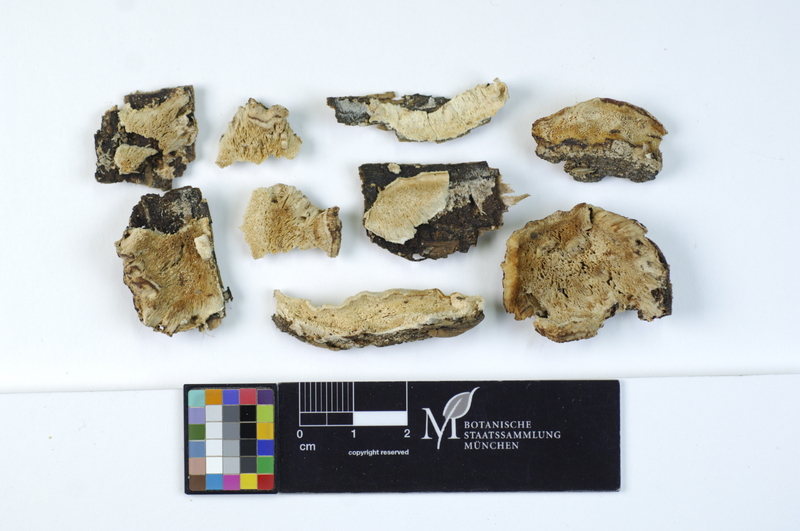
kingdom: Plantae
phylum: Tracheophyta
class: Pinopsida
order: Pinales
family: Pinaceae
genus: Pinus
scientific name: Pinus
